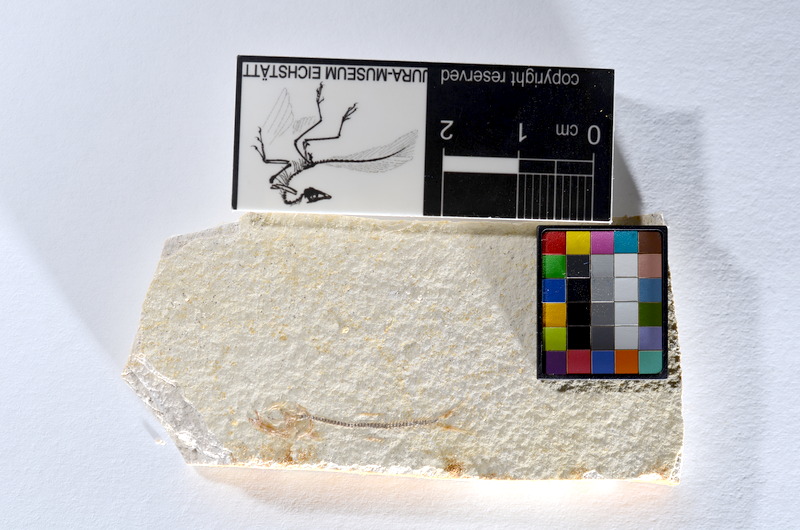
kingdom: Animalia
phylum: Chordata
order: Salmoniformes
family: Orthogonikleithridae
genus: Orthogonikleithrus
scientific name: Orthogonikleithrus hoelli
